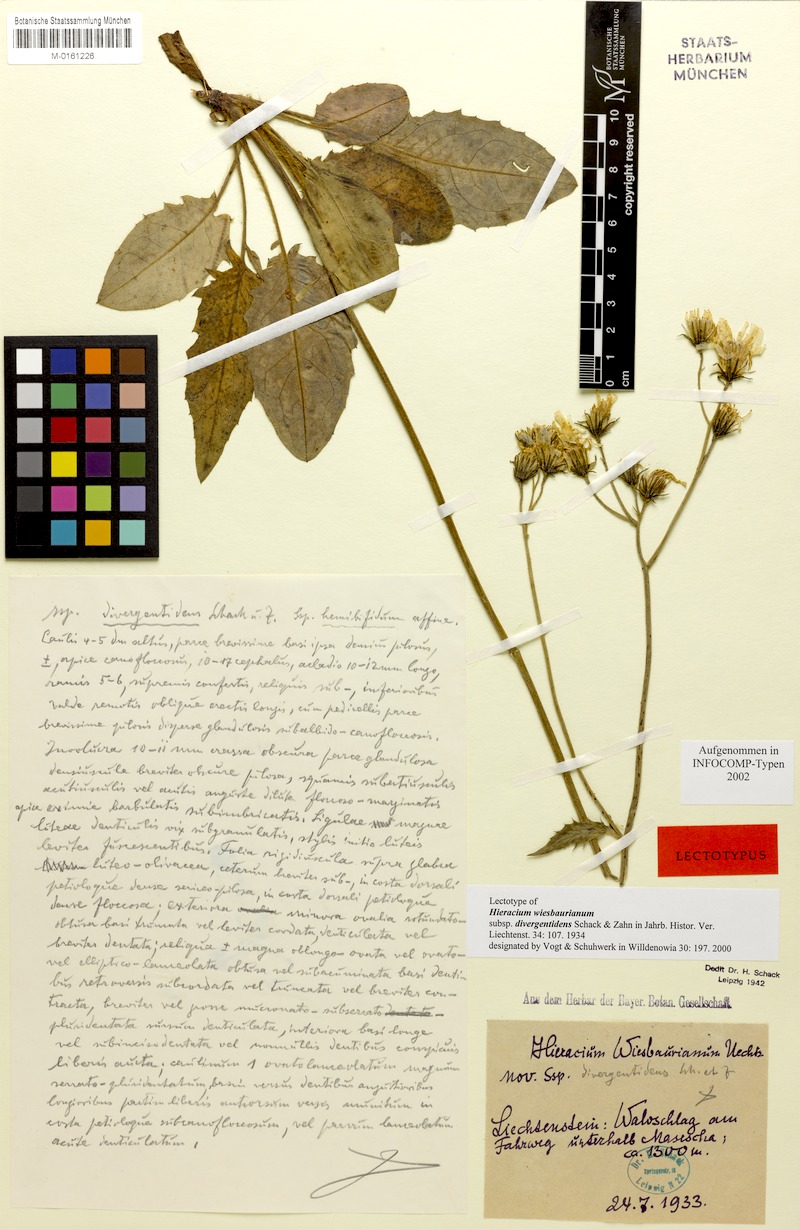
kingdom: Plantae
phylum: Tracheophyta
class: Magnoliopsida
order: Asterales
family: Asteraceae
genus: Hieracium
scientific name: Hieracium hypochoeroides
